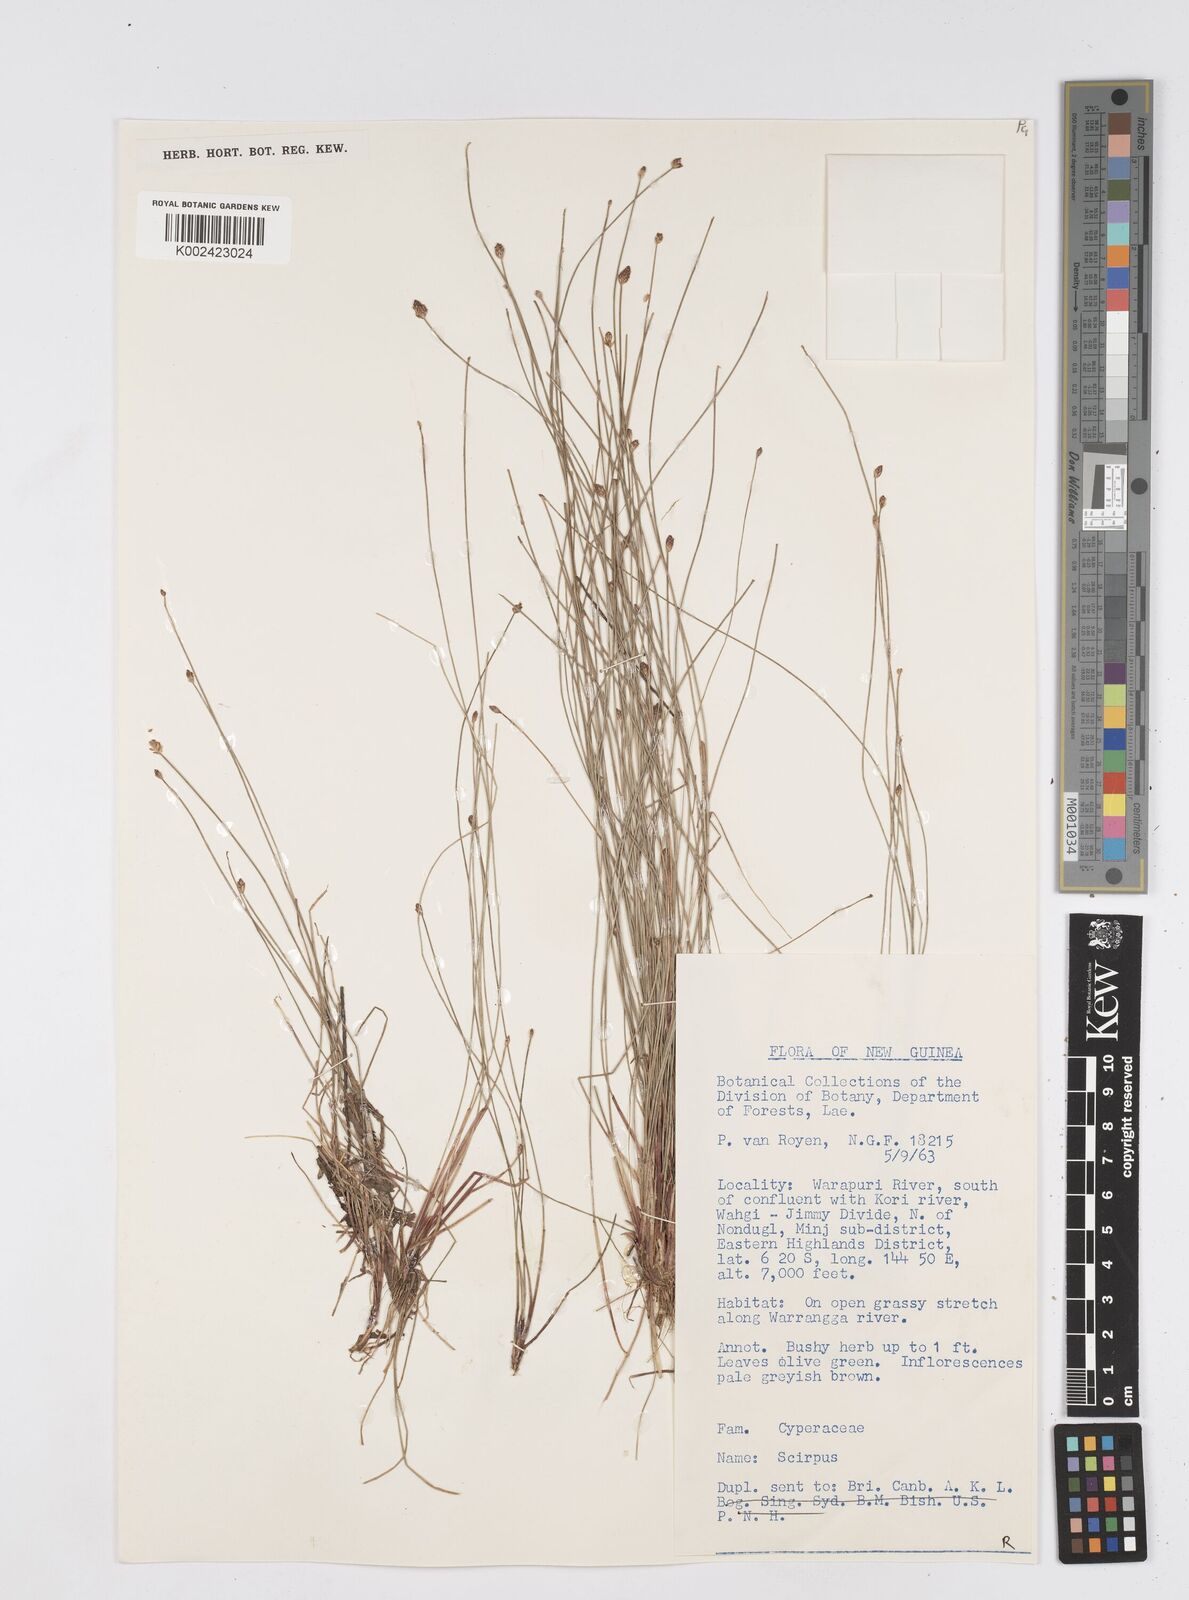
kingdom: Plantae
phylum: Tracheophyta
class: Liliopsida
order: Poales
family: Cyperaceae
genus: Eleocharis
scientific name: Eleocharis
